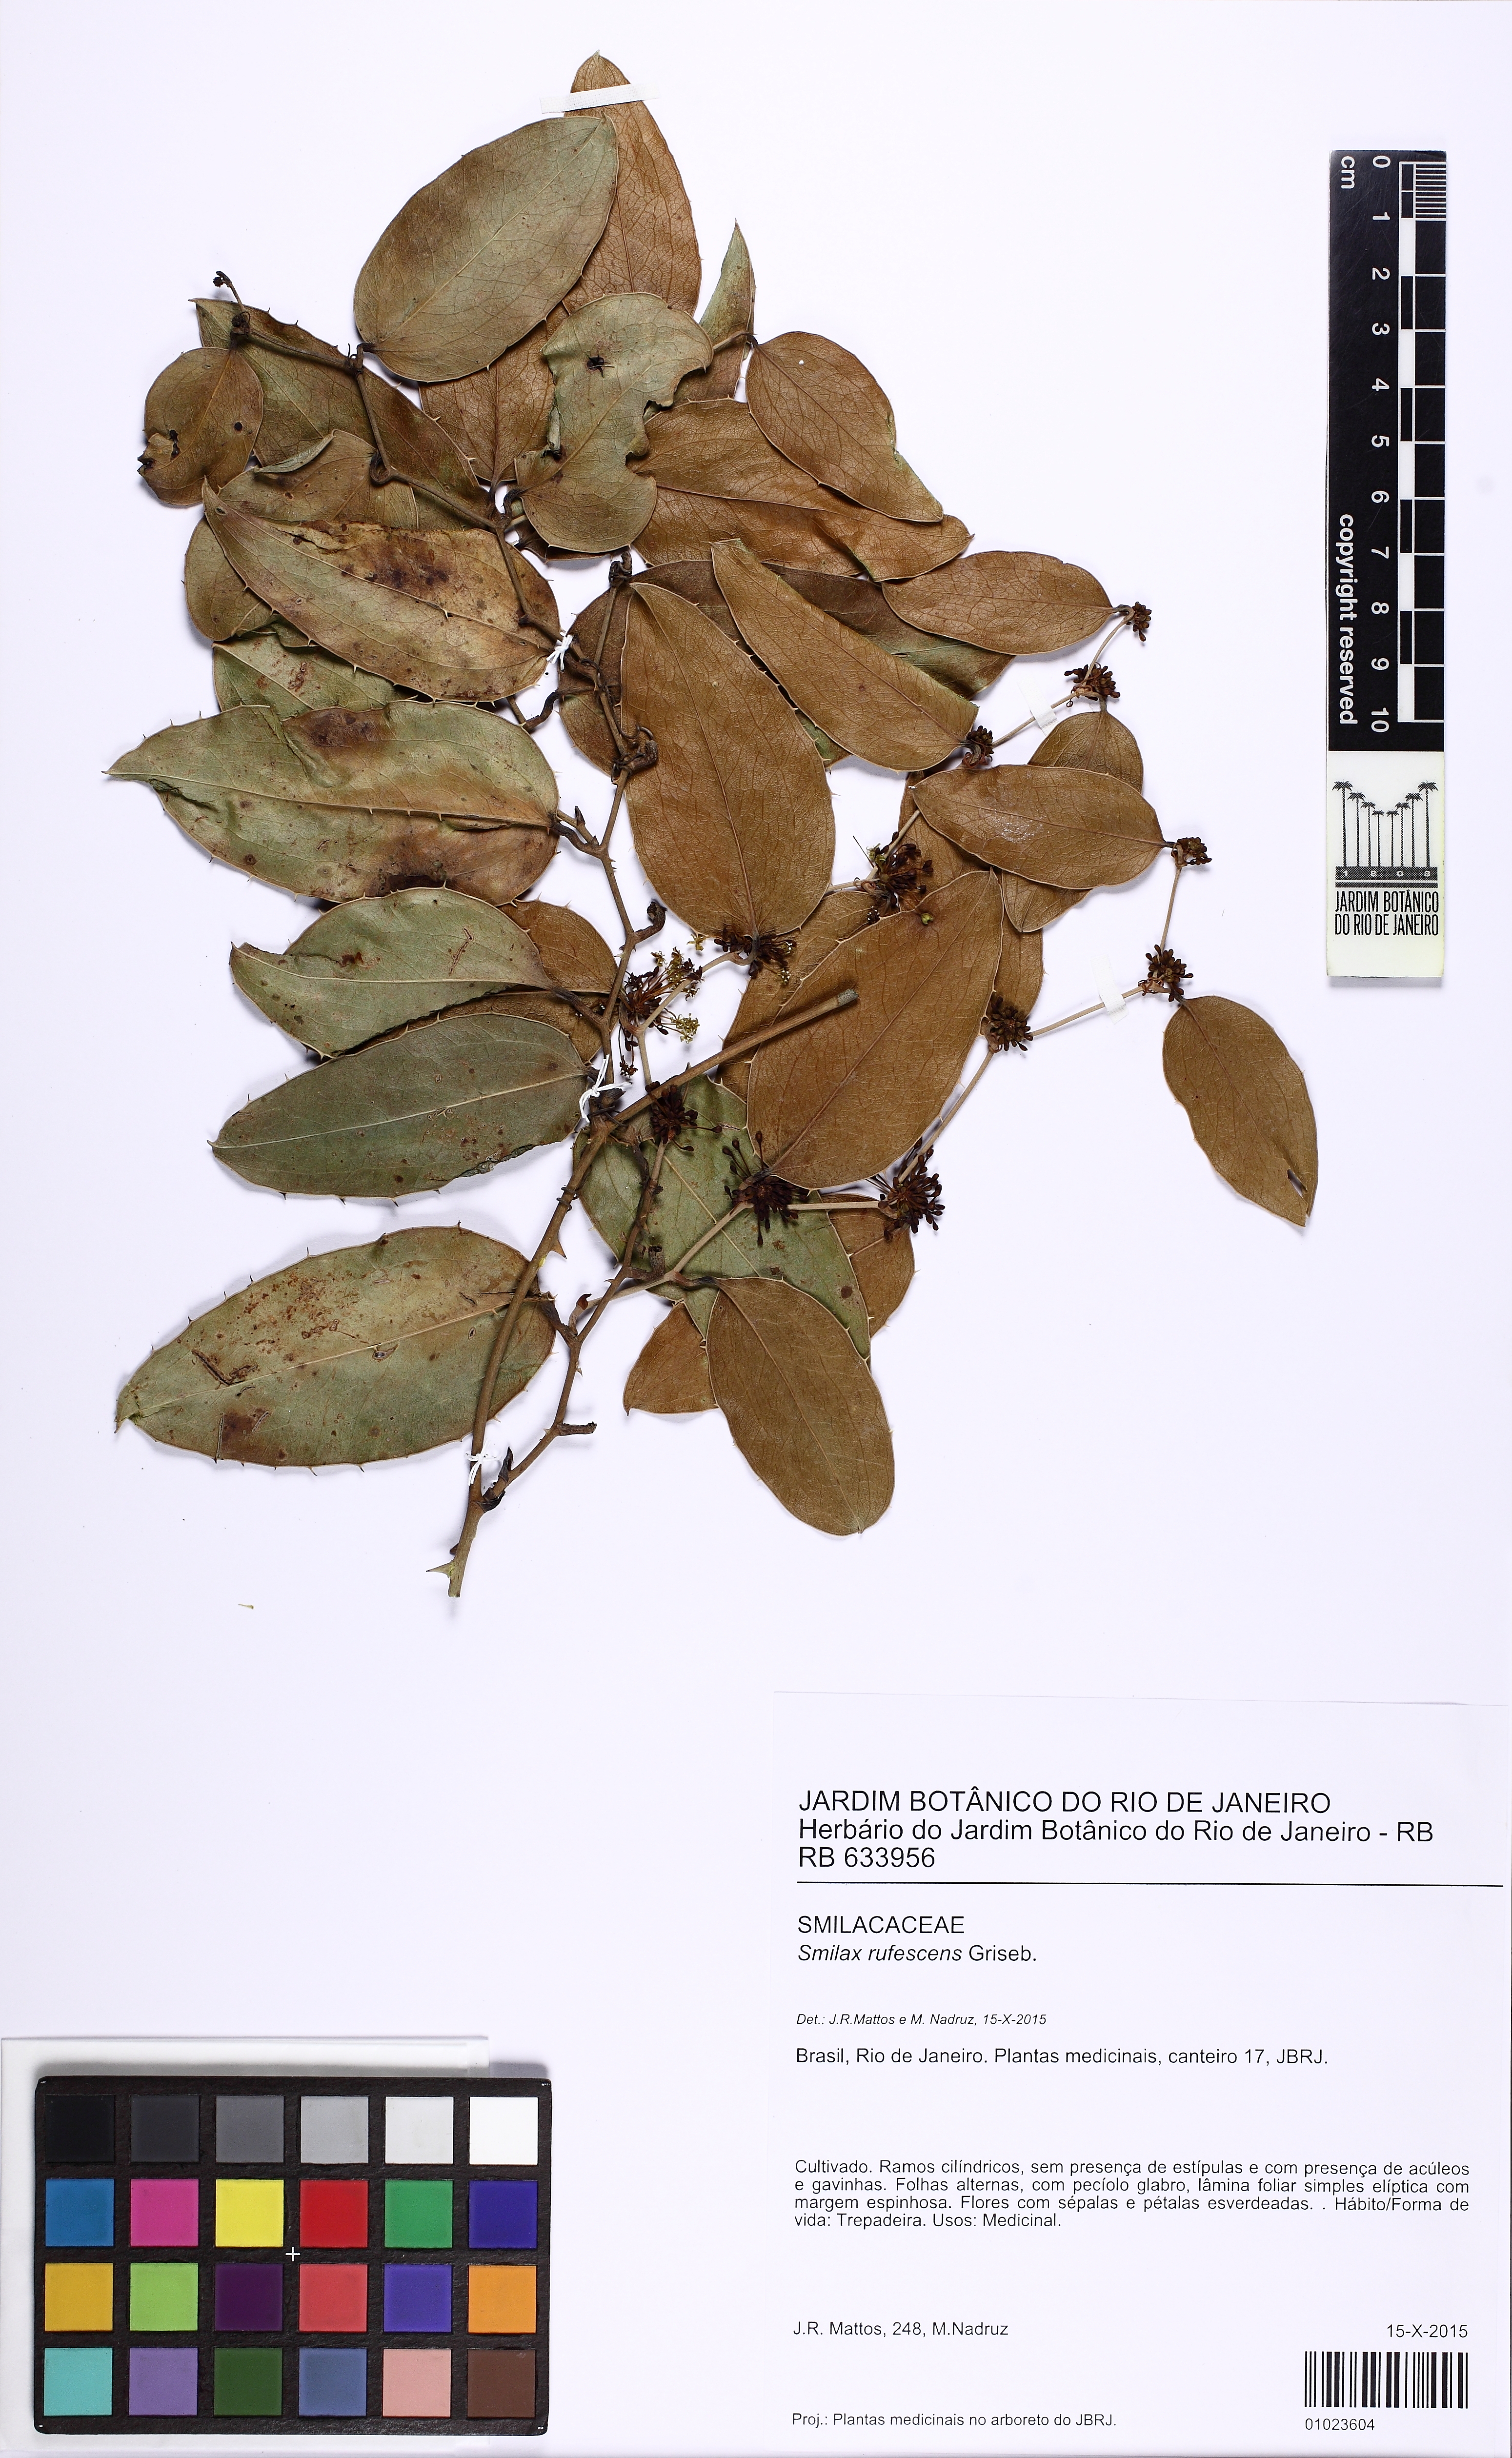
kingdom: Plantae
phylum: Tracheophyta
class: Liliopsida
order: Liliales
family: Smilacaceae
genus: Smilax
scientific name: Smilax rufescens
